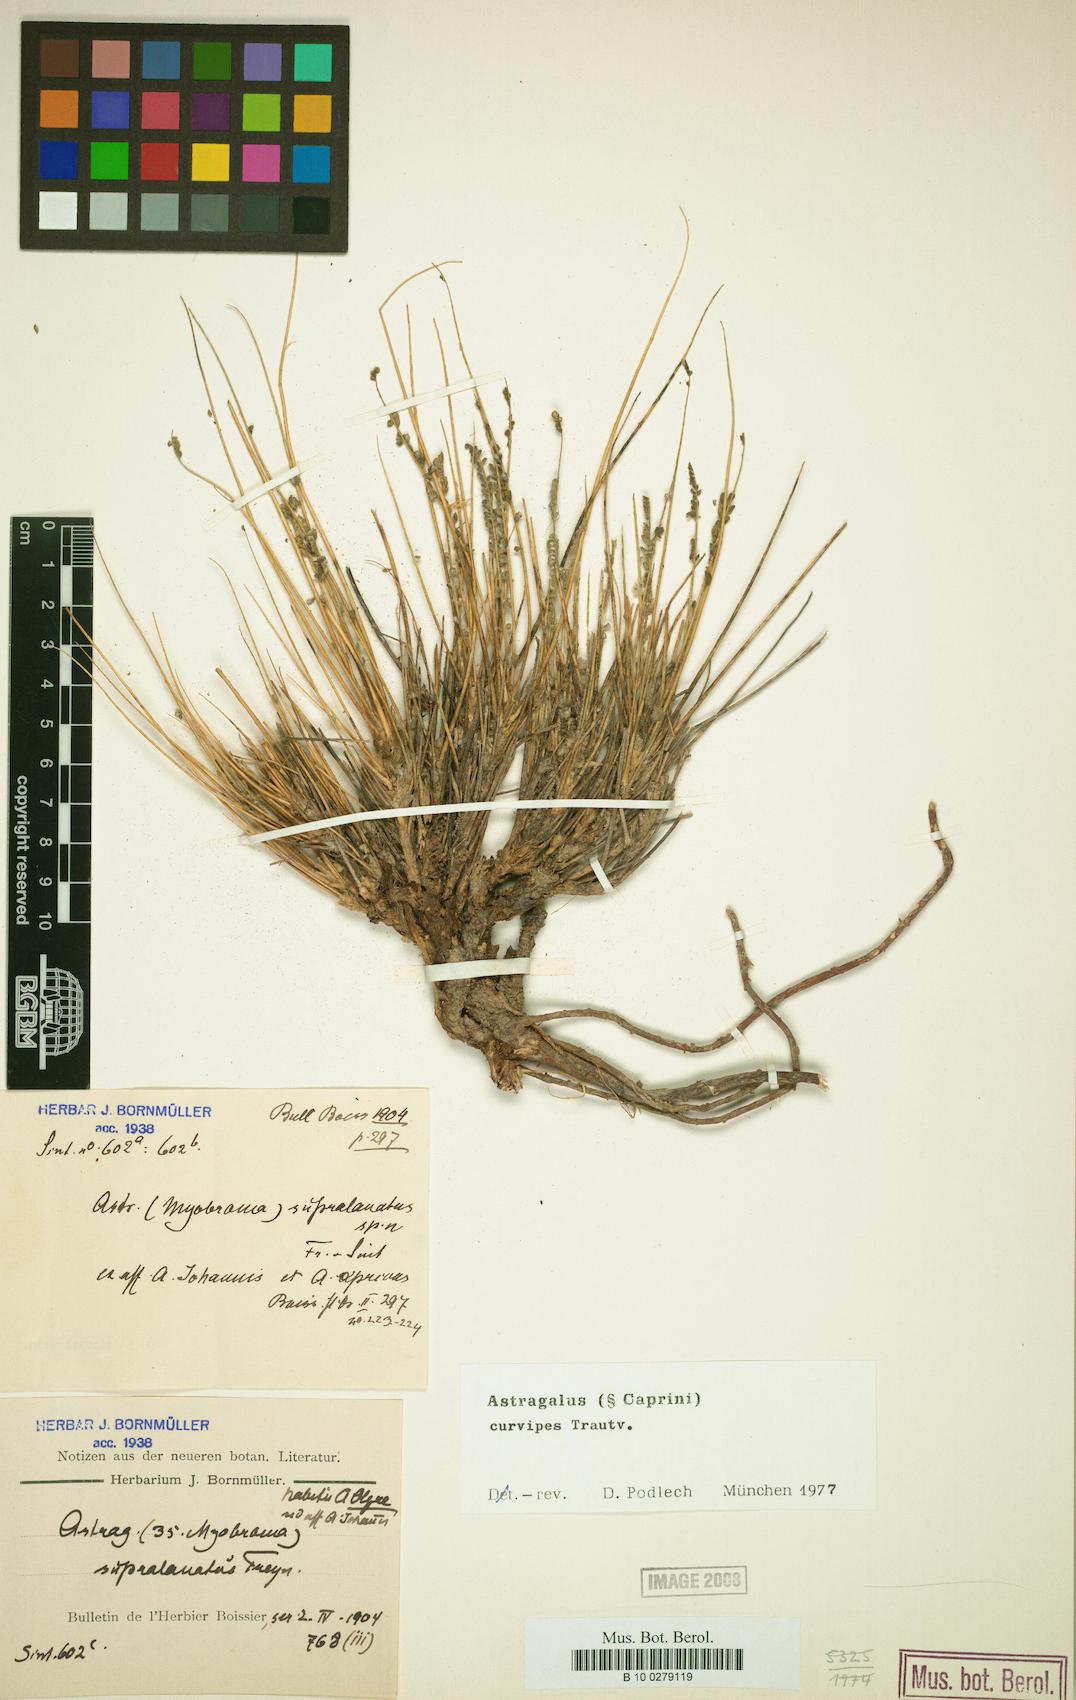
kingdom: Plantae
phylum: Tracheophyta
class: Magnoliopsida
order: Fabales
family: Fabaceae
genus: Astragalus
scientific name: Astragalus curvipes
